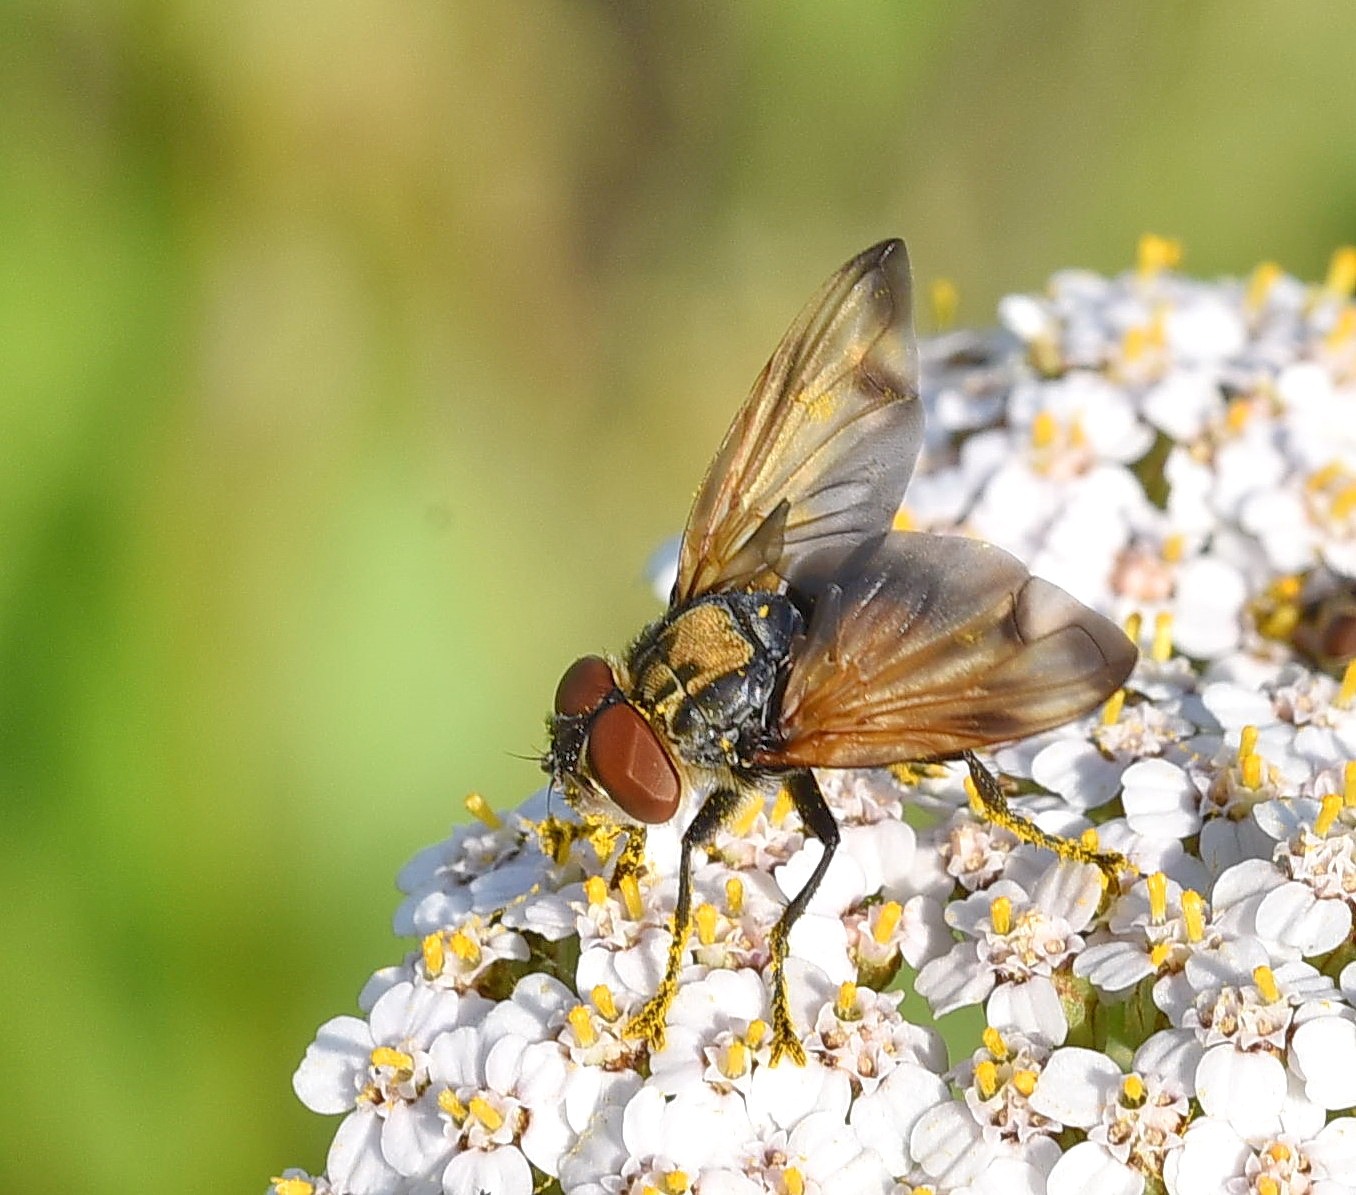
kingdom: Animalia
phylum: Arthropoda
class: Insecta
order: Diptera
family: Tachinidae
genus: Phasia
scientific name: Phasia aurigera
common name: Gylden pragtsnylteflue
